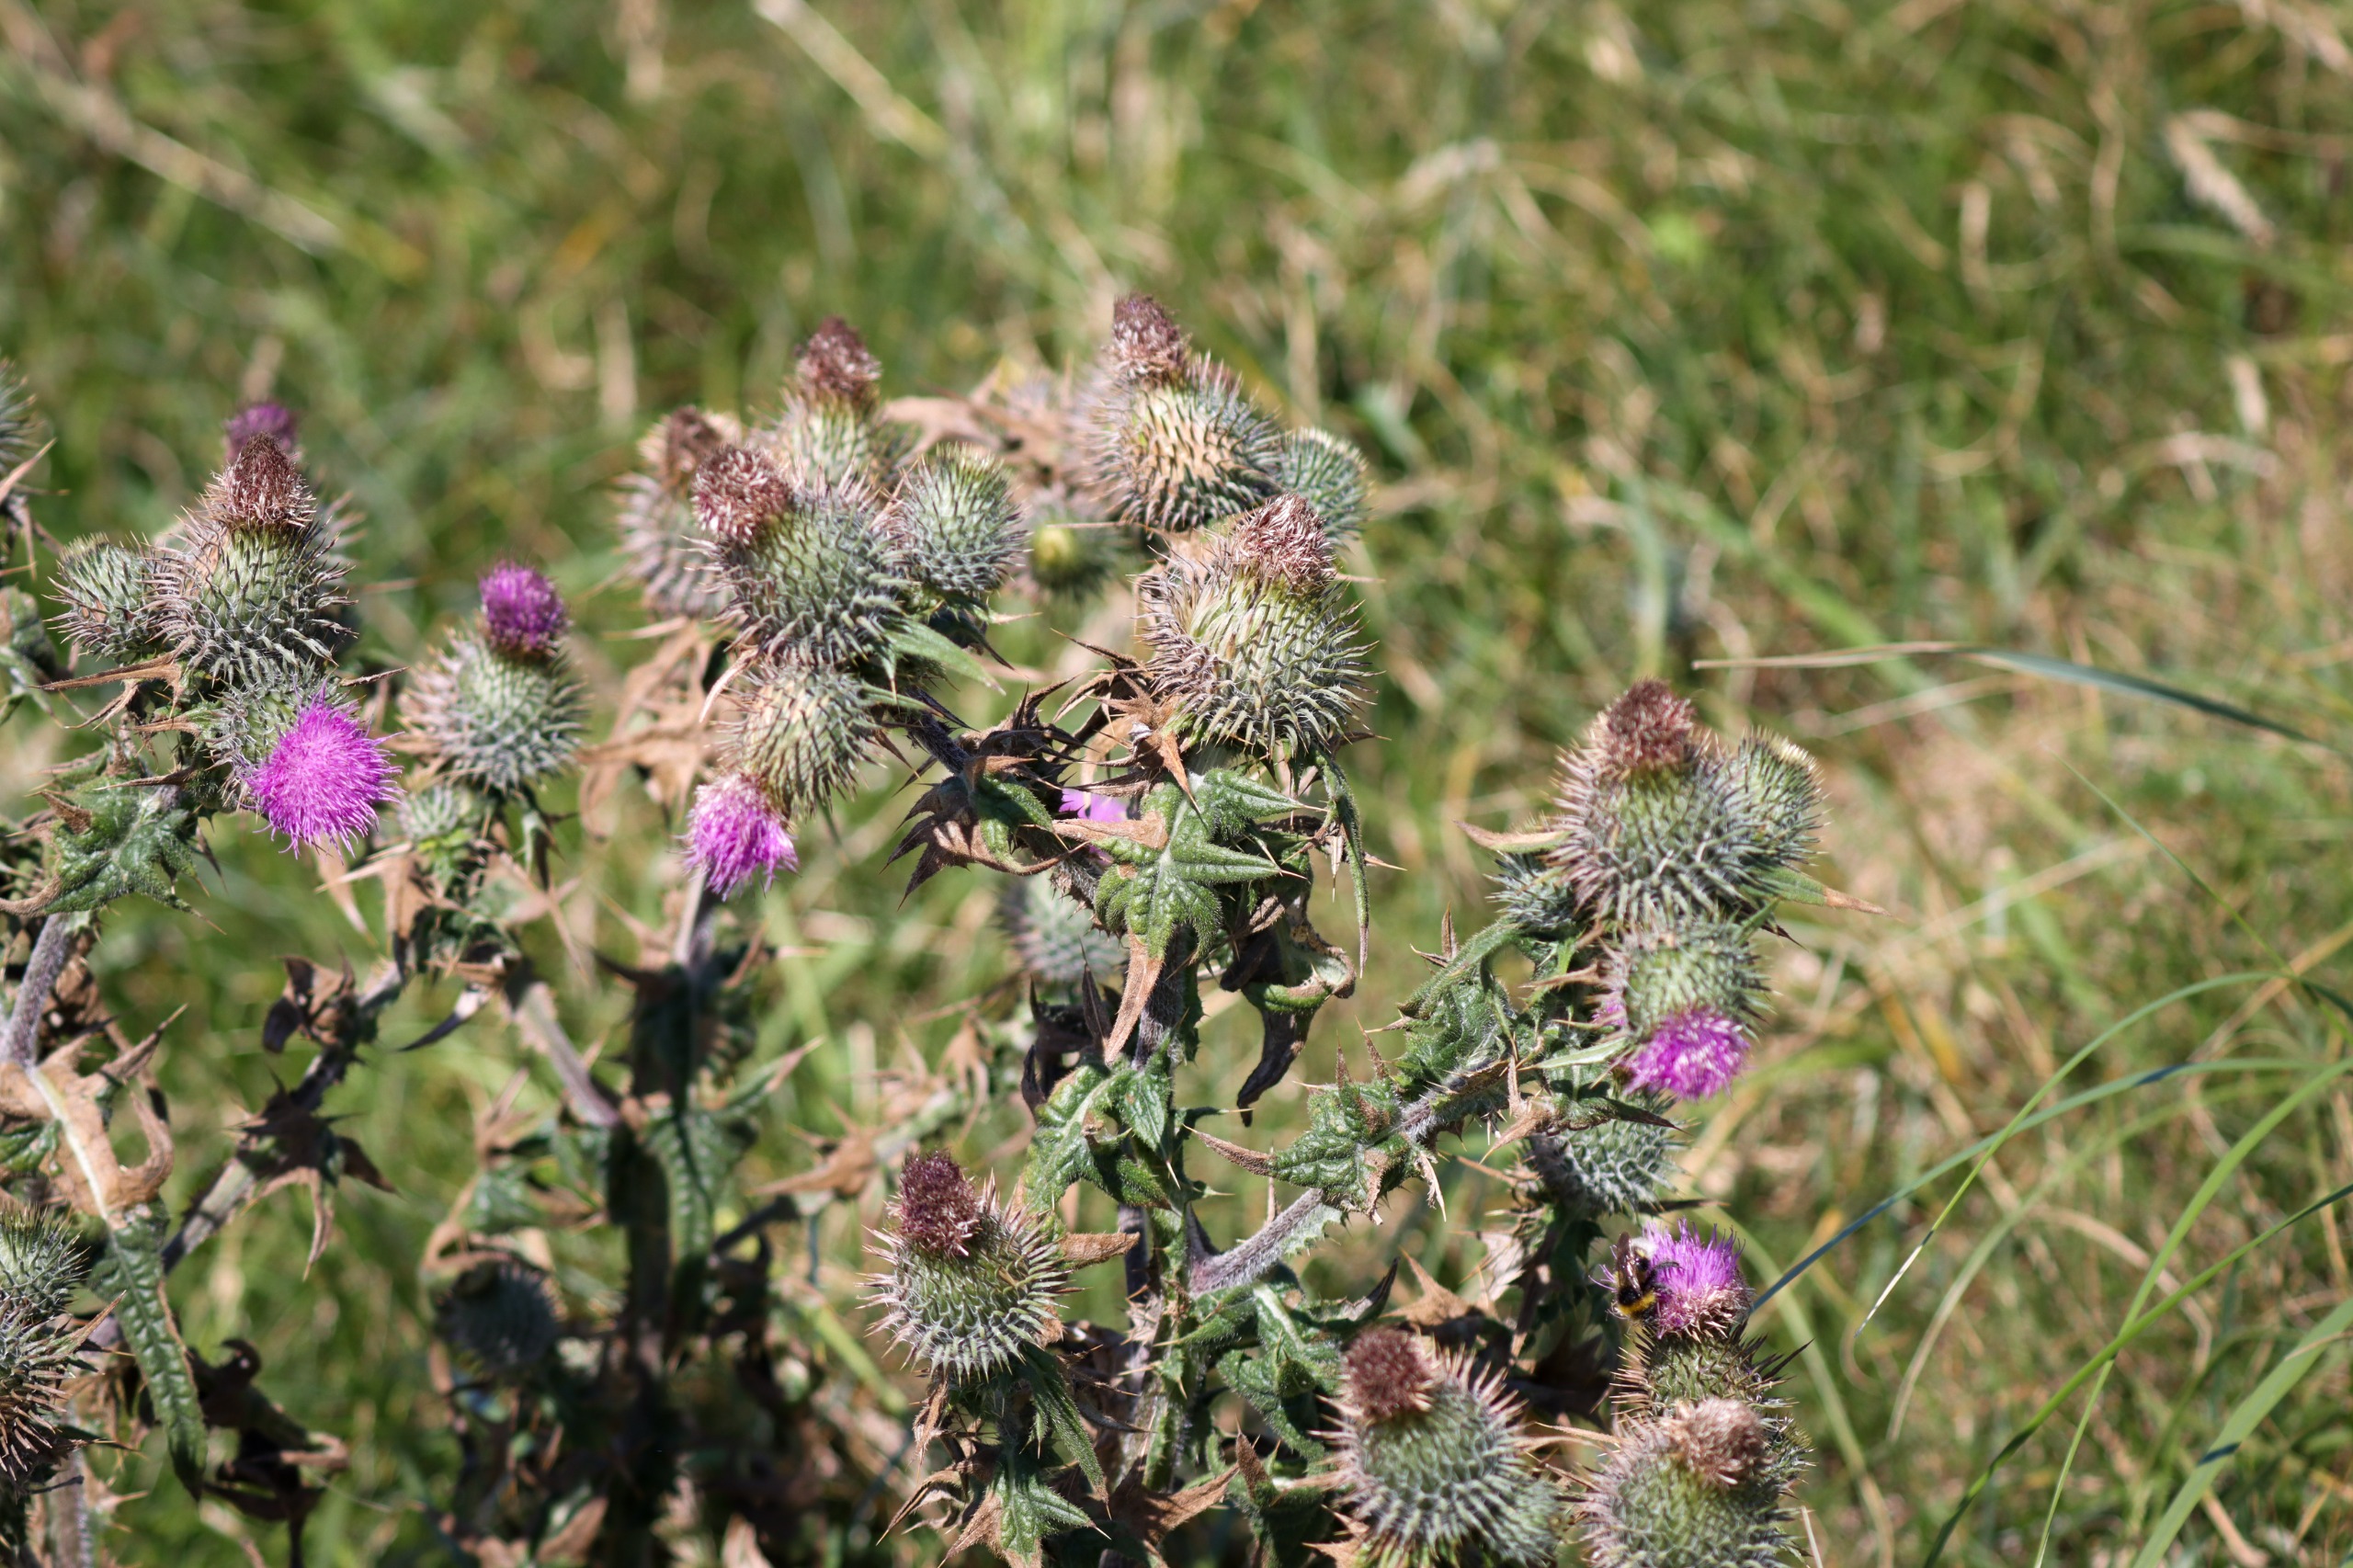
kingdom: Plantae
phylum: Tracheophyta
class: Magnoliopsida
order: Asterales
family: Asteraceae
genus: Cirsium
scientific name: Cirsium vulgare
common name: Horse-tidsel
